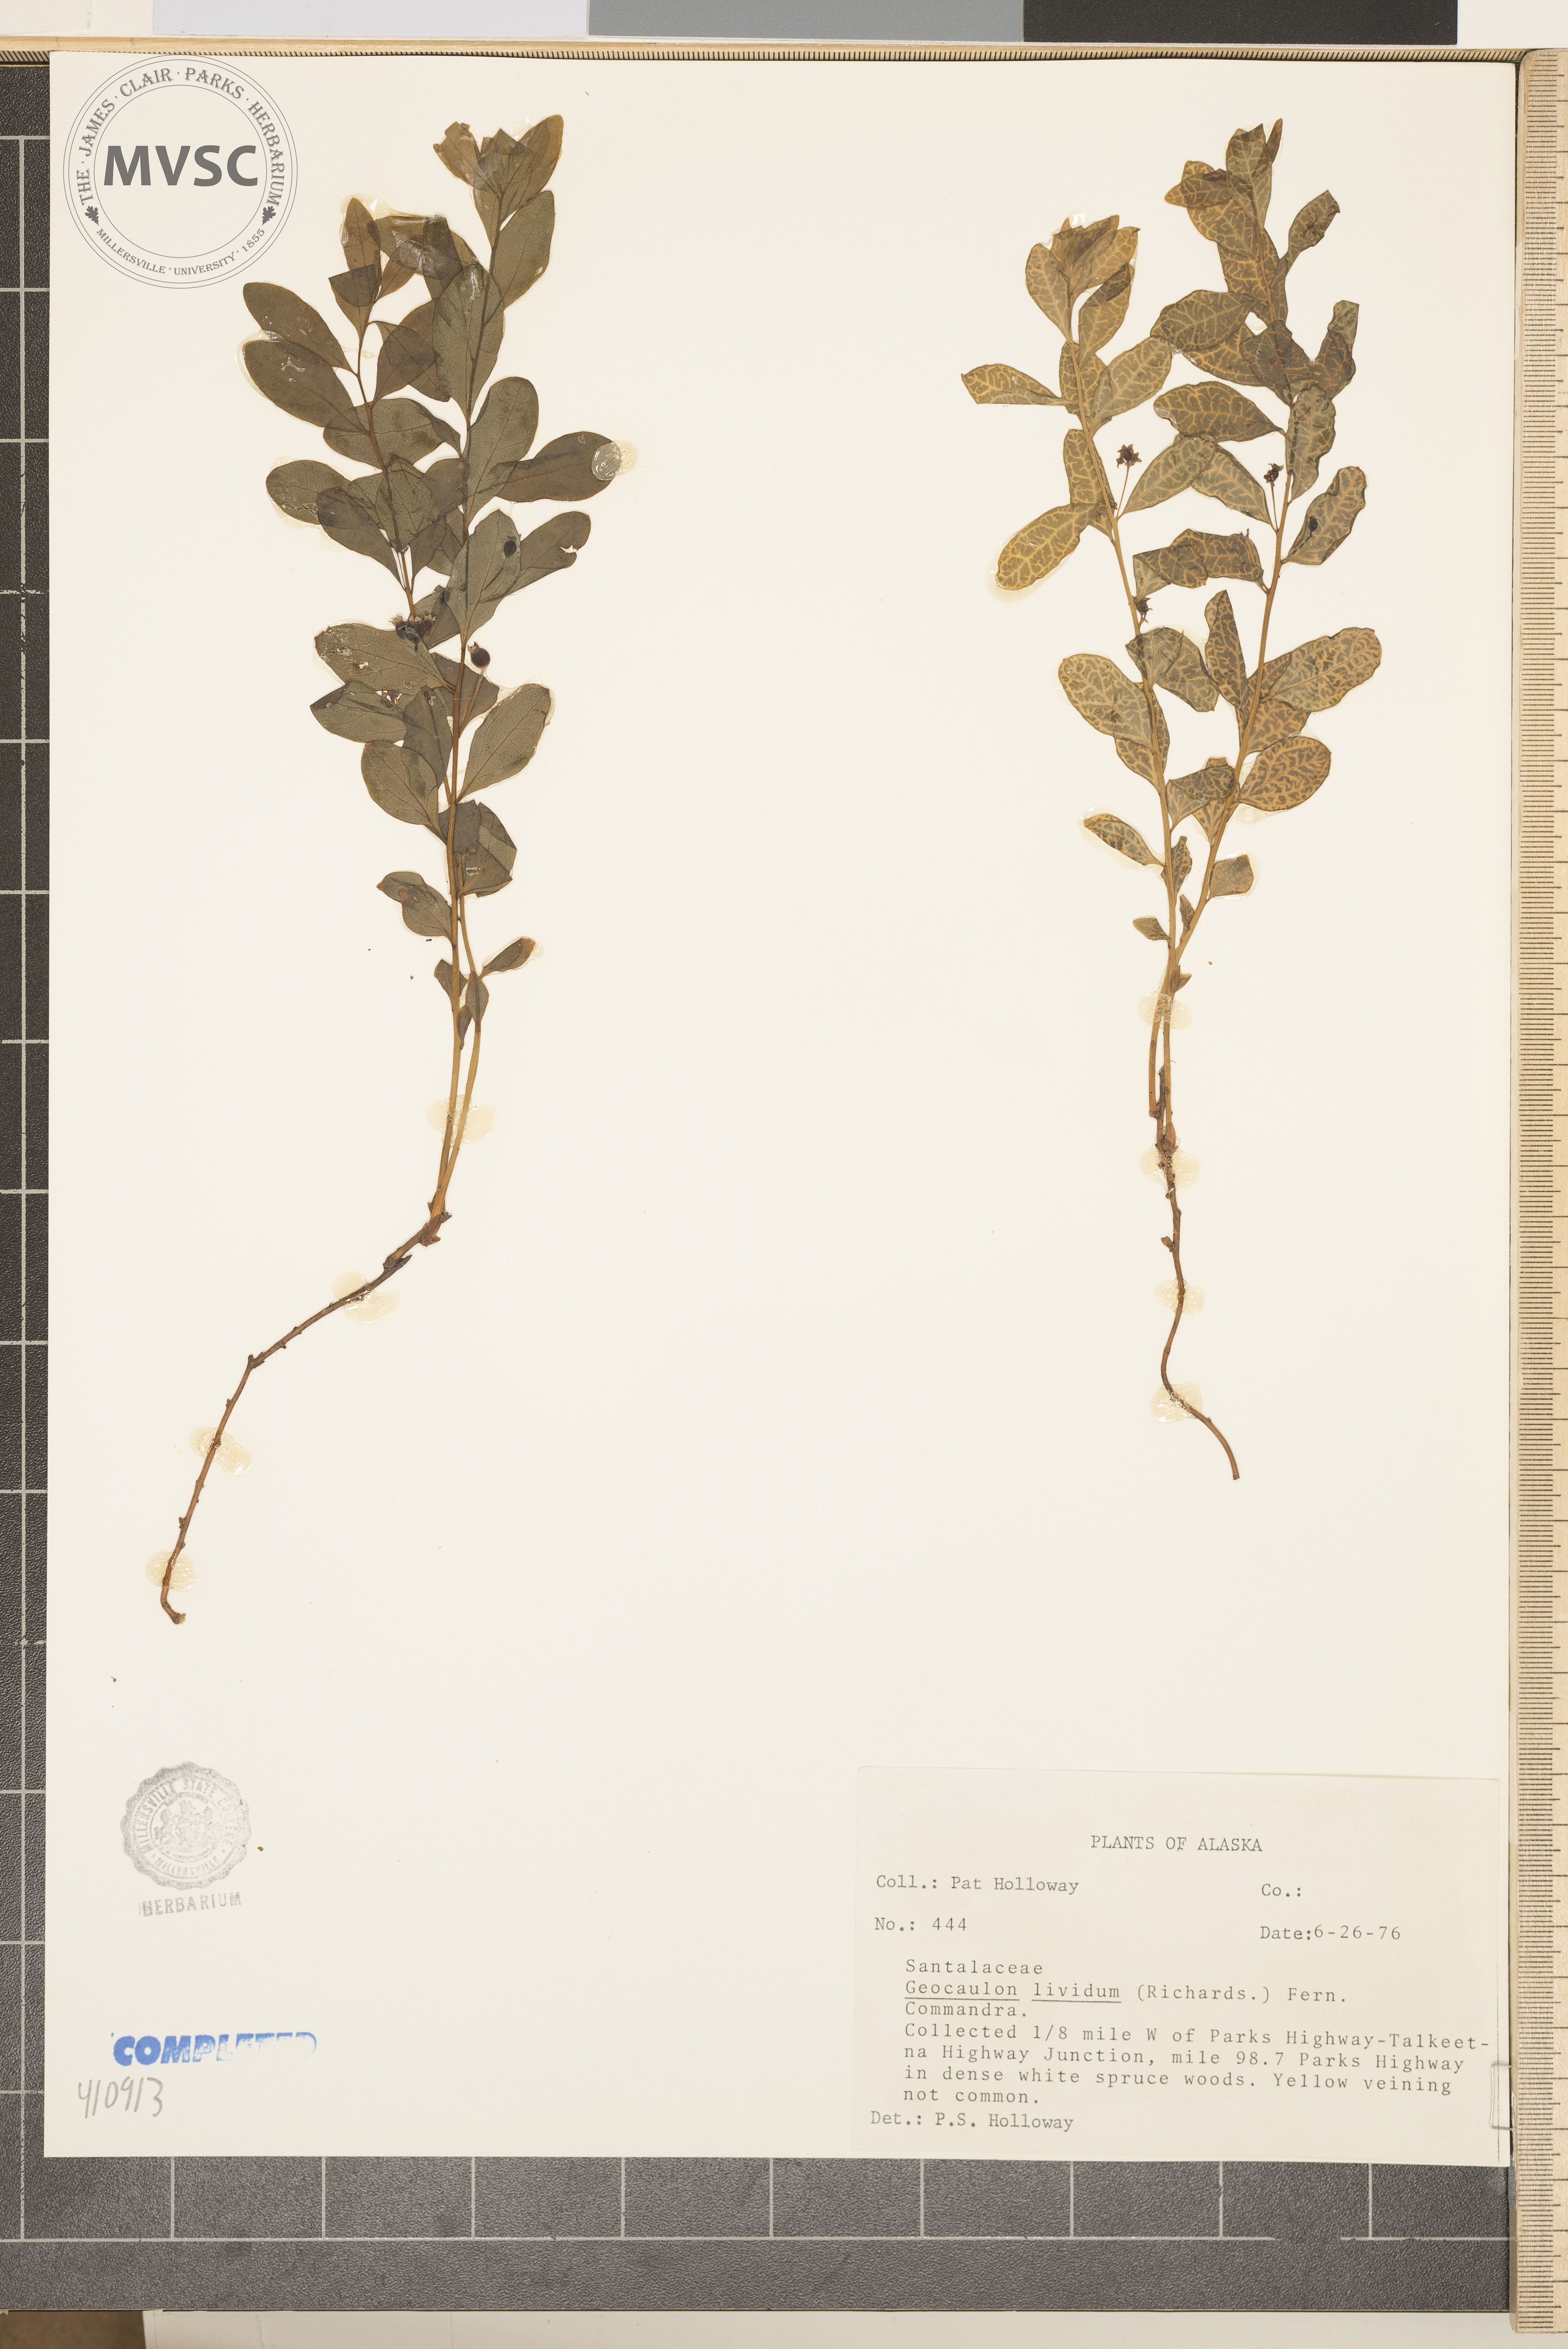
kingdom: Plantae
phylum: Tracheophyta
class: Magnoliopsida
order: Santalales
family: Comandraceae
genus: Geocaulon
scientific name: Geocaulon lividum
